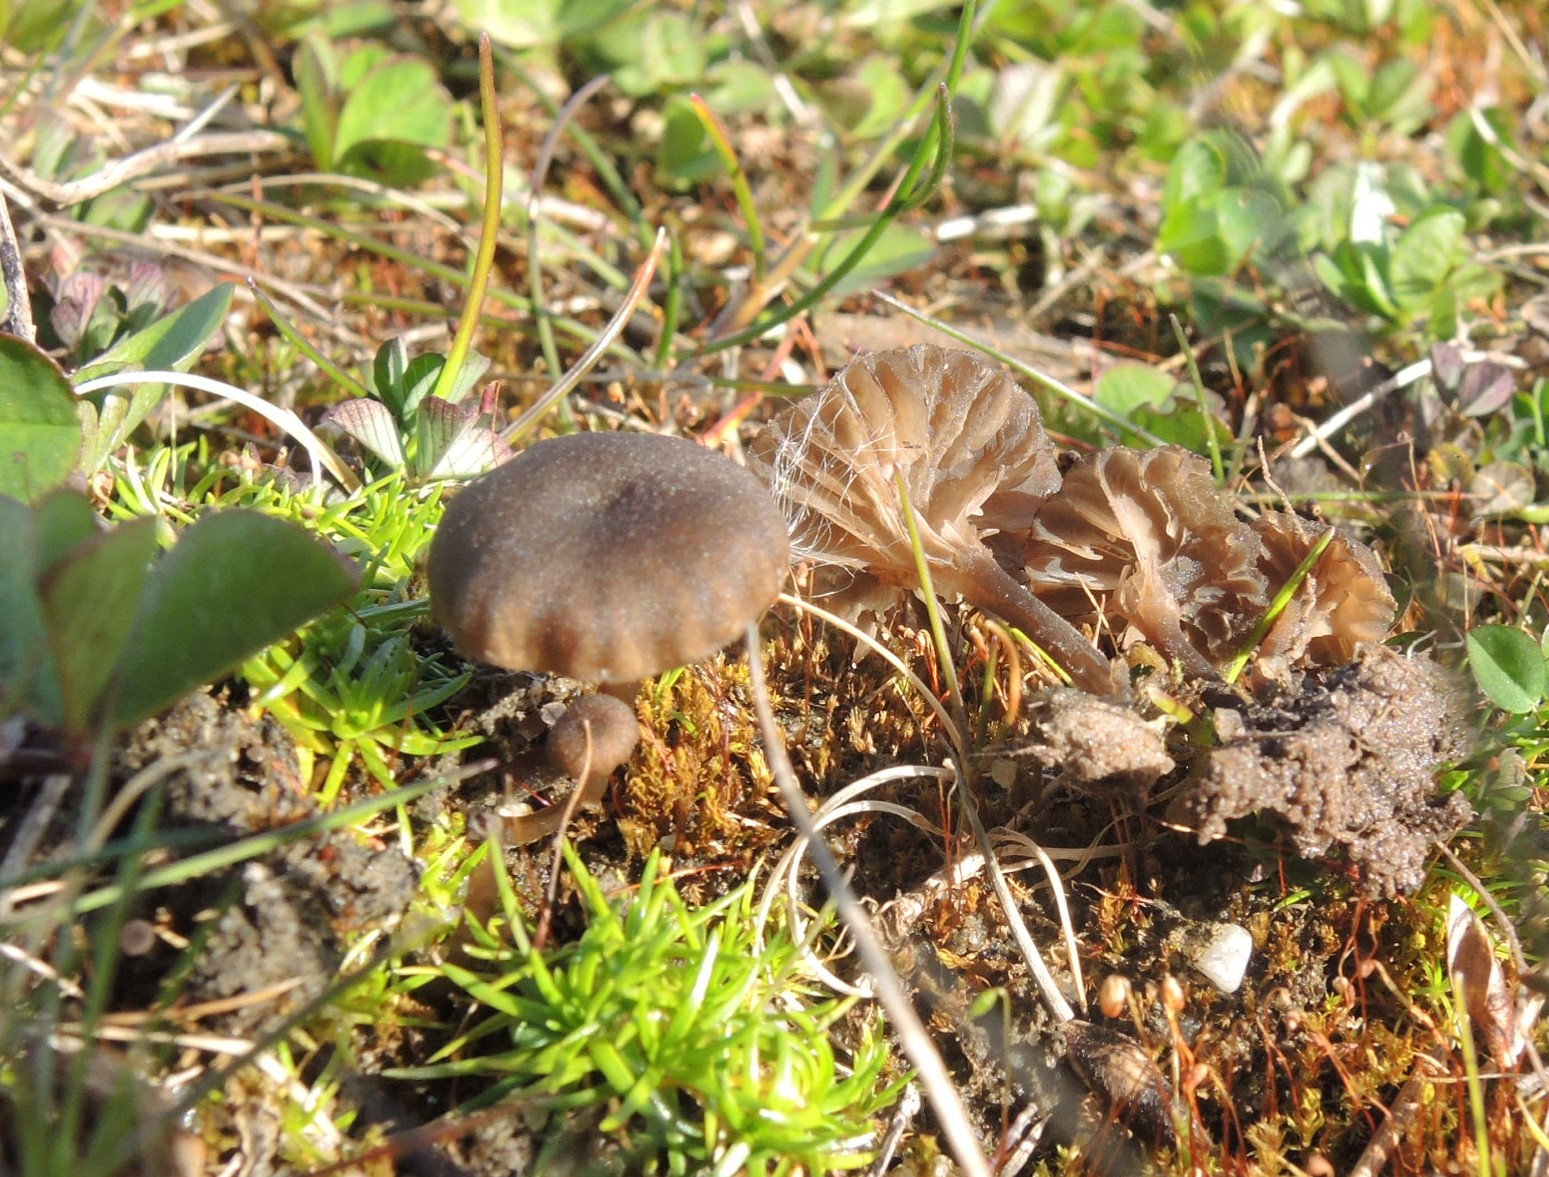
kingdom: Fungi
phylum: Basidiomycota
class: Agaricomycetes
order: Agaricales
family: Hygrophoraceae
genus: Arrhenia
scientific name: Arrhenia obscurata
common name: hede-fontænehat
